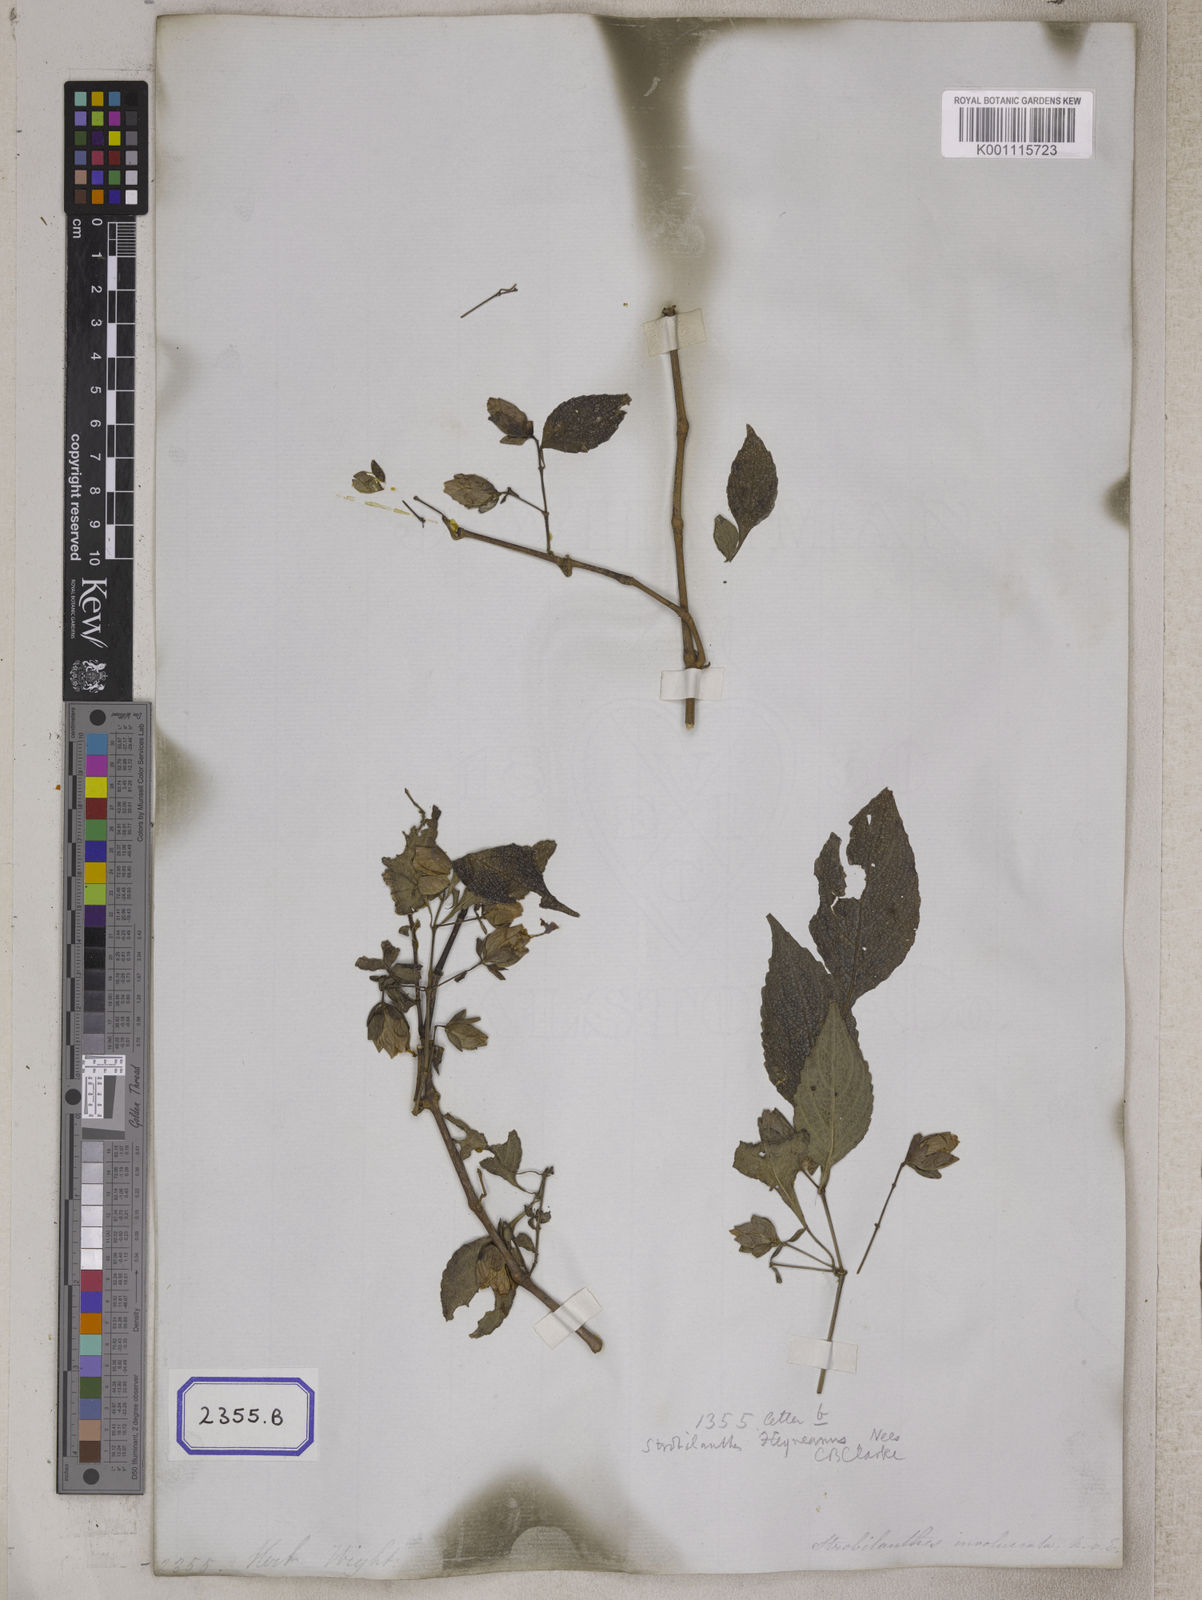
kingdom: Plantae
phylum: Tracheophyta
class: Magnoliopsida
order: Lamiales
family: Acanthaceae
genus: Strobilanthes
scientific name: Strobilanthes lupulina
